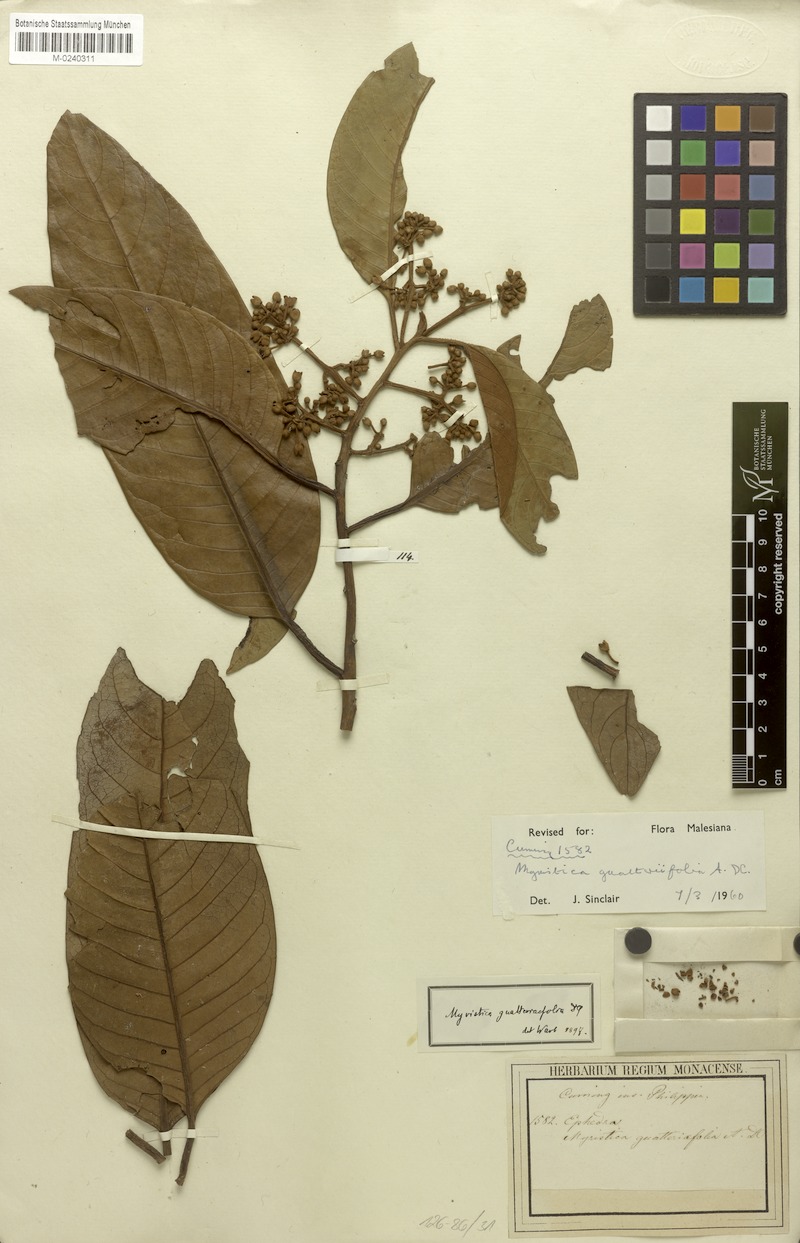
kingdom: Plantae
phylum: Tracheophyta
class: Magnoliopsida
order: Magnoliales
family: Myristicaceae
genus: Myristica
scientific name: Myristica guatteriaefolia
